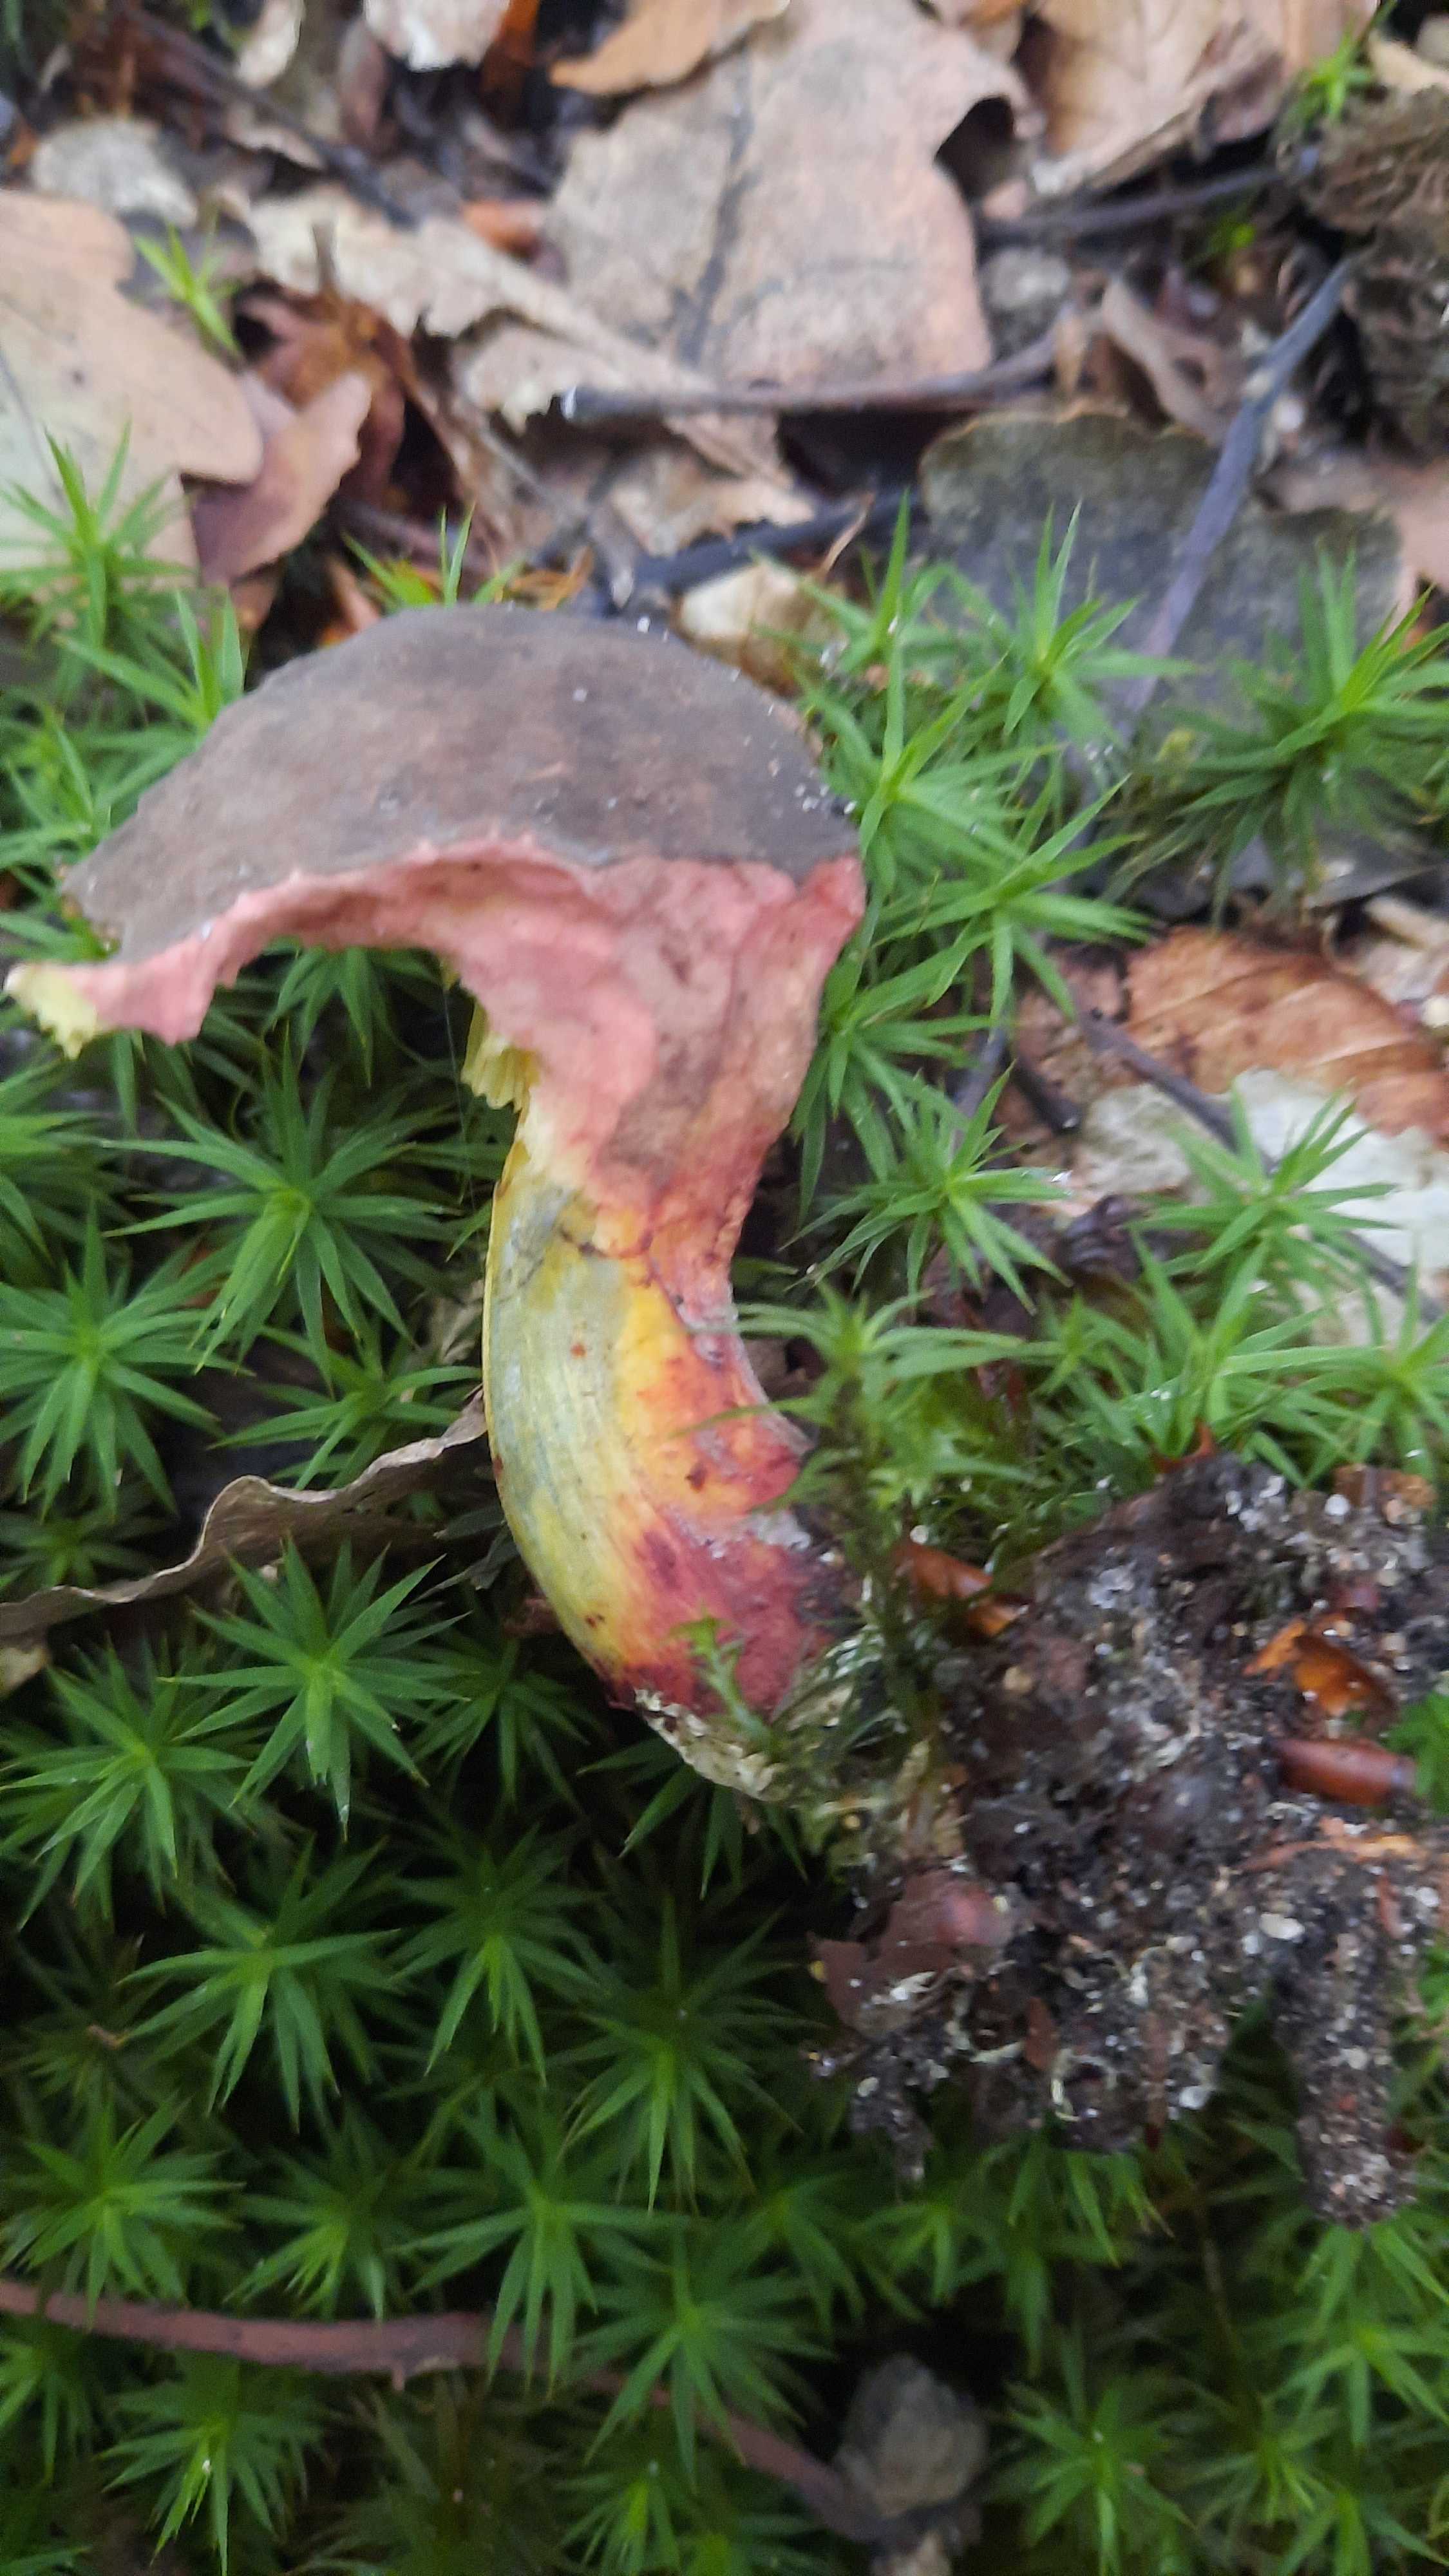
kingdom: Fungi
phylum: Basidiomycota
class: Agaricomycetes
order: Boletales
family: Boletaceae
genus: Xerocomellus
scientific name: Xerocomellus pruinatus
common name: dugget rørhat
